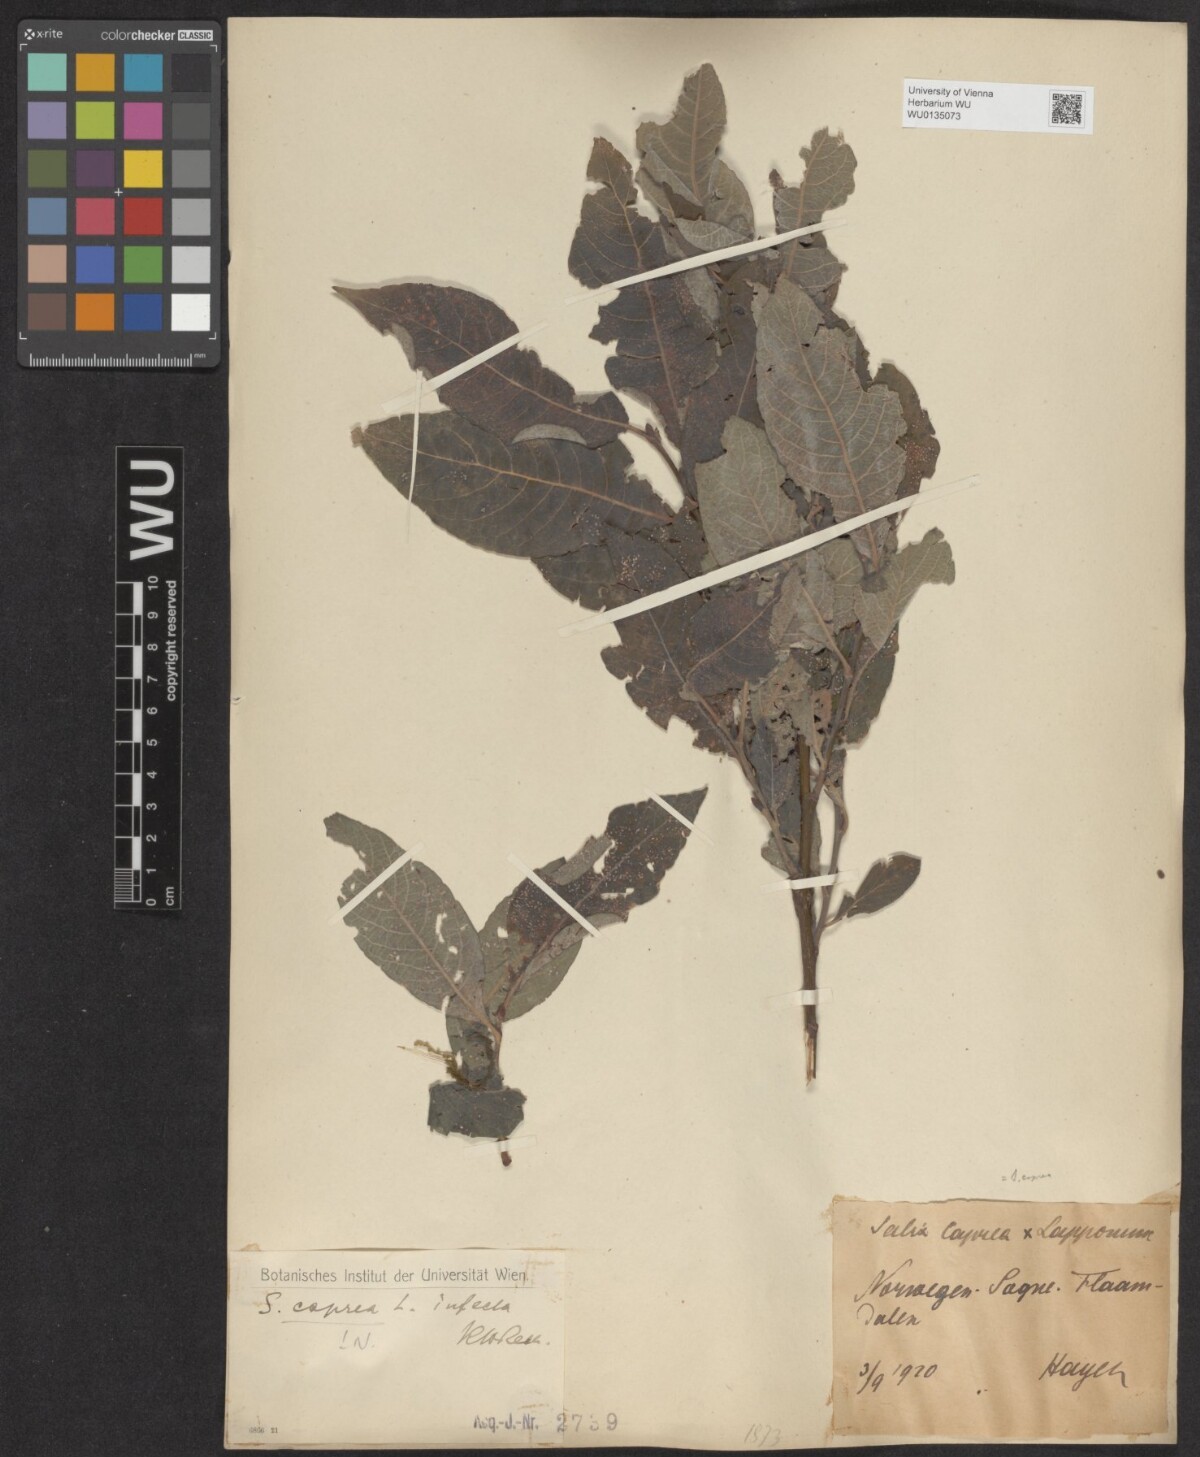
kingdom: Plantae
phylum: Tracheophyta
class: Magnoliopsida
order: Malpighiales
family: Salicaceae
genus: Salix
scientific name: Salix caprea
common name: Goat willow
